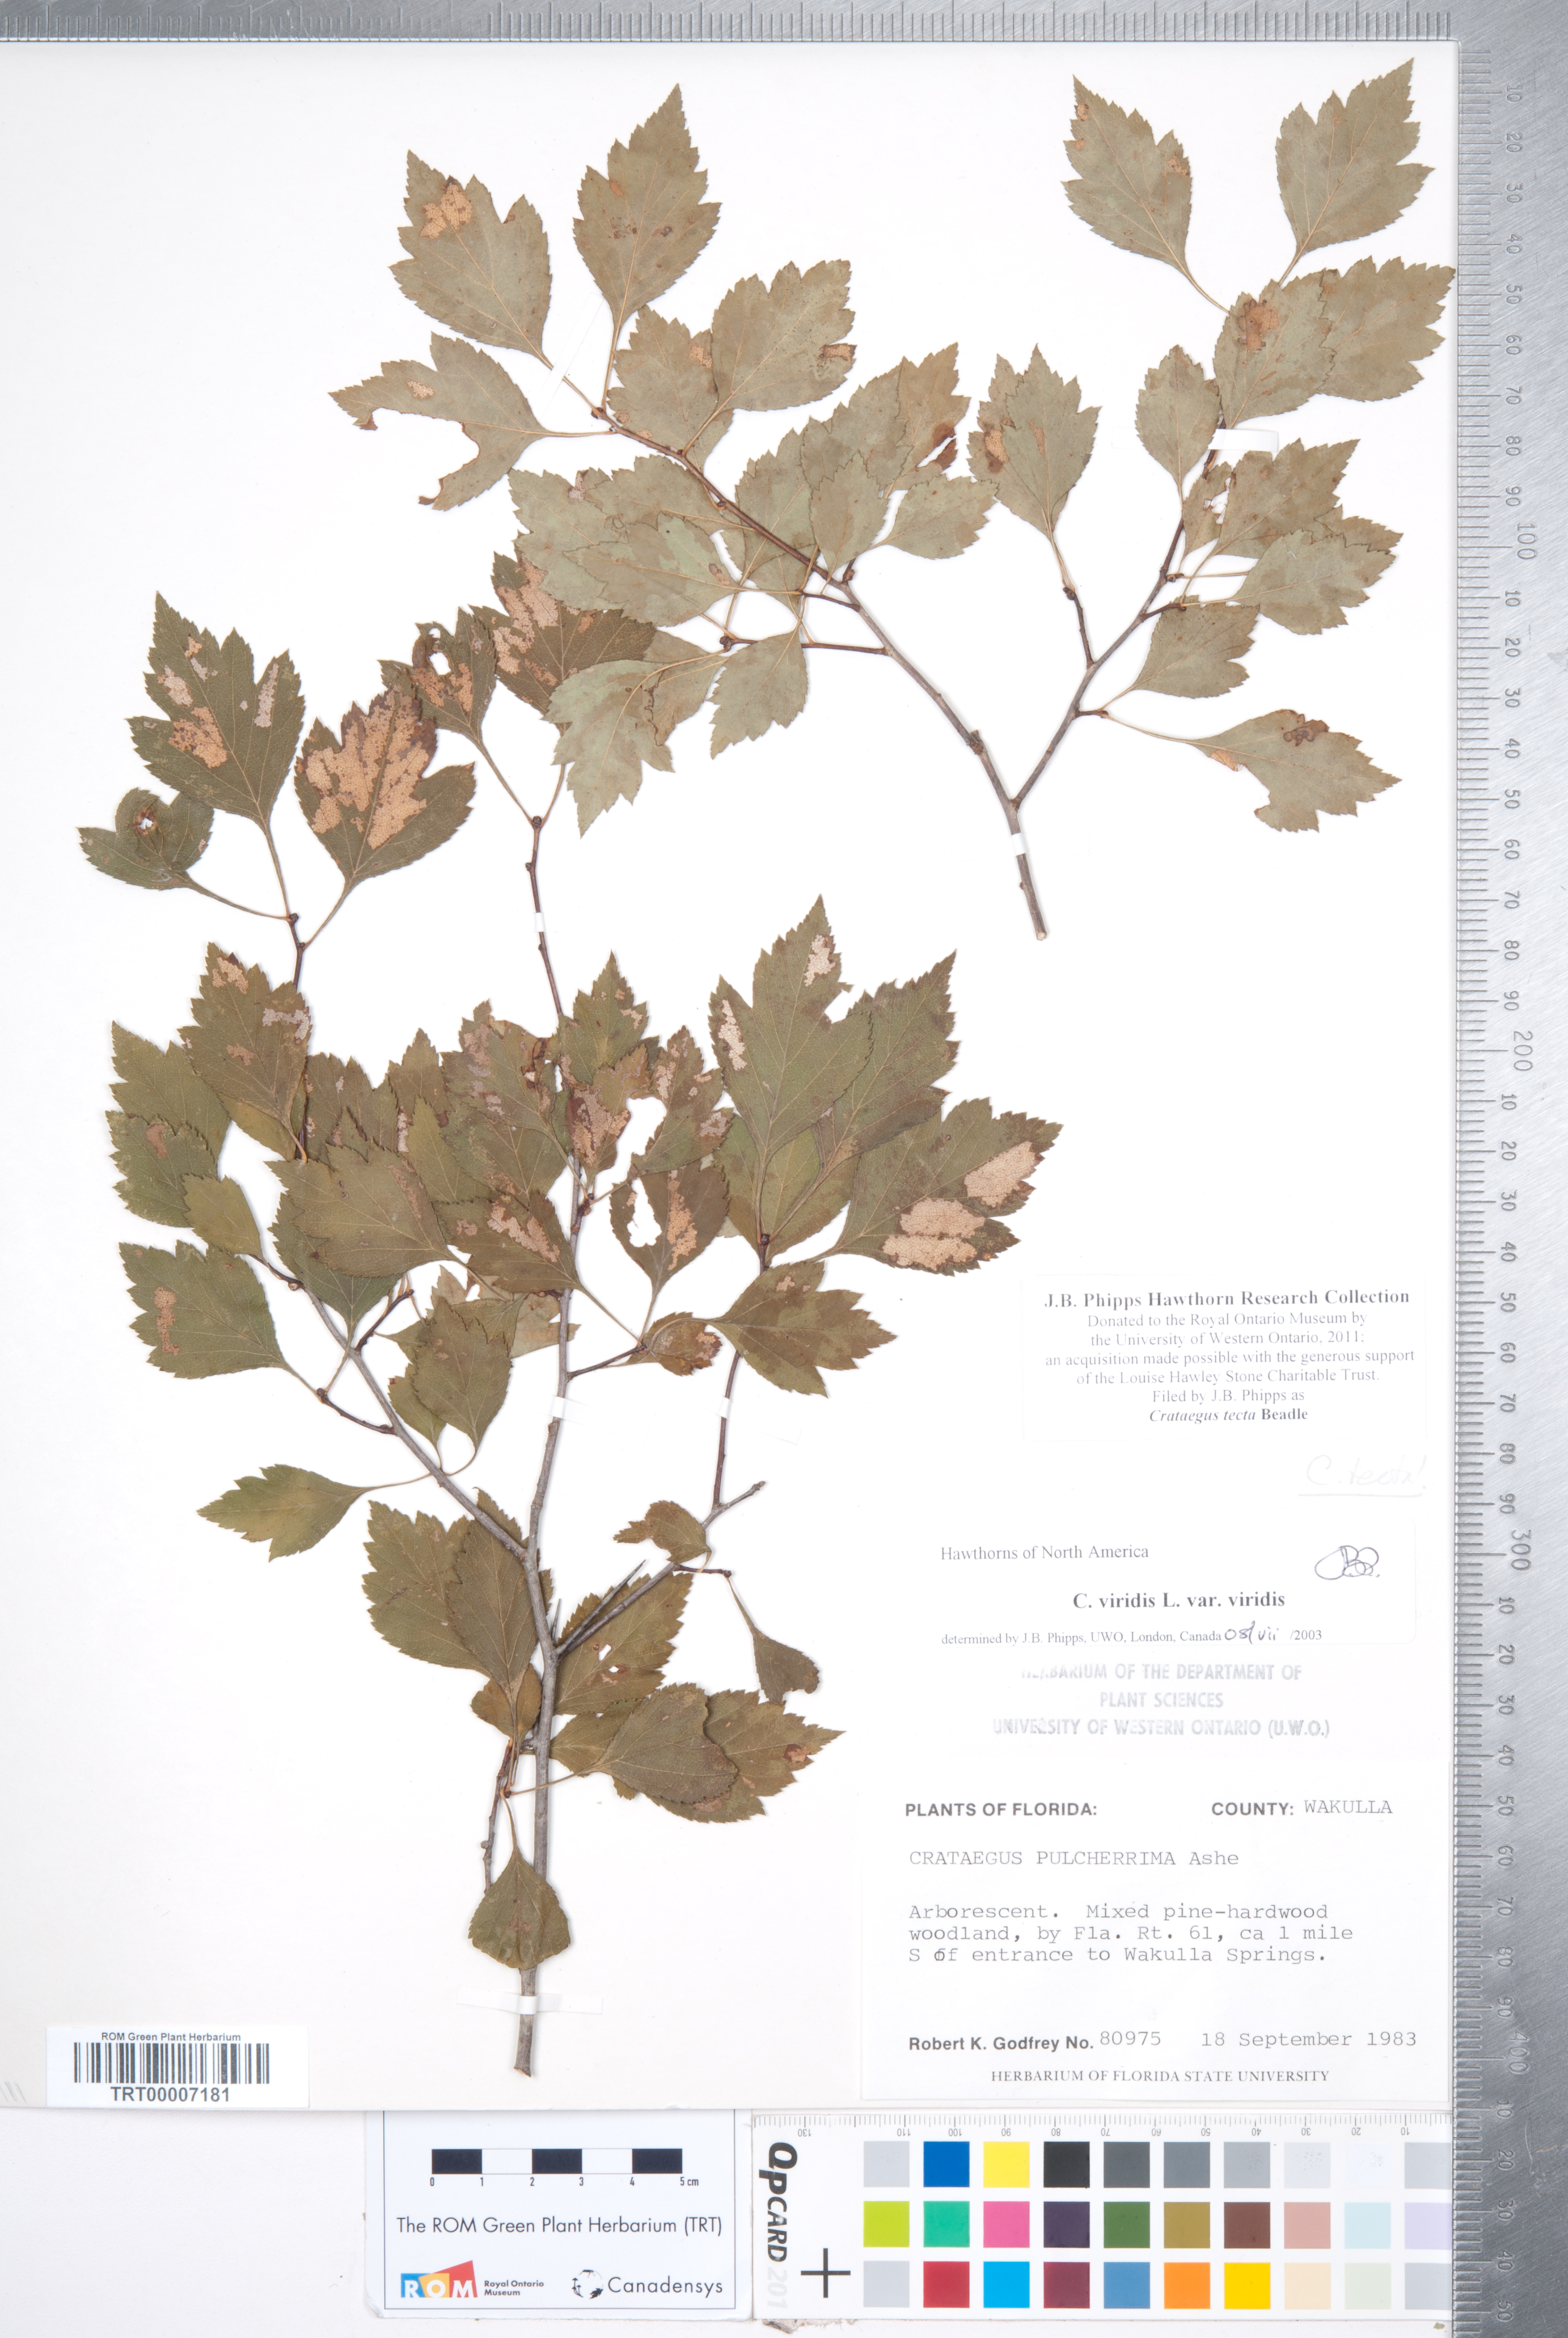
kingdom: Plantae
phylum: Tracheophyta
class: Magnoliopsida
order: Rosales
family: Rosaceae
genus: Crataegus
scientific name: Crataegus pulcherrima
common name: Beautiful hawthorn
